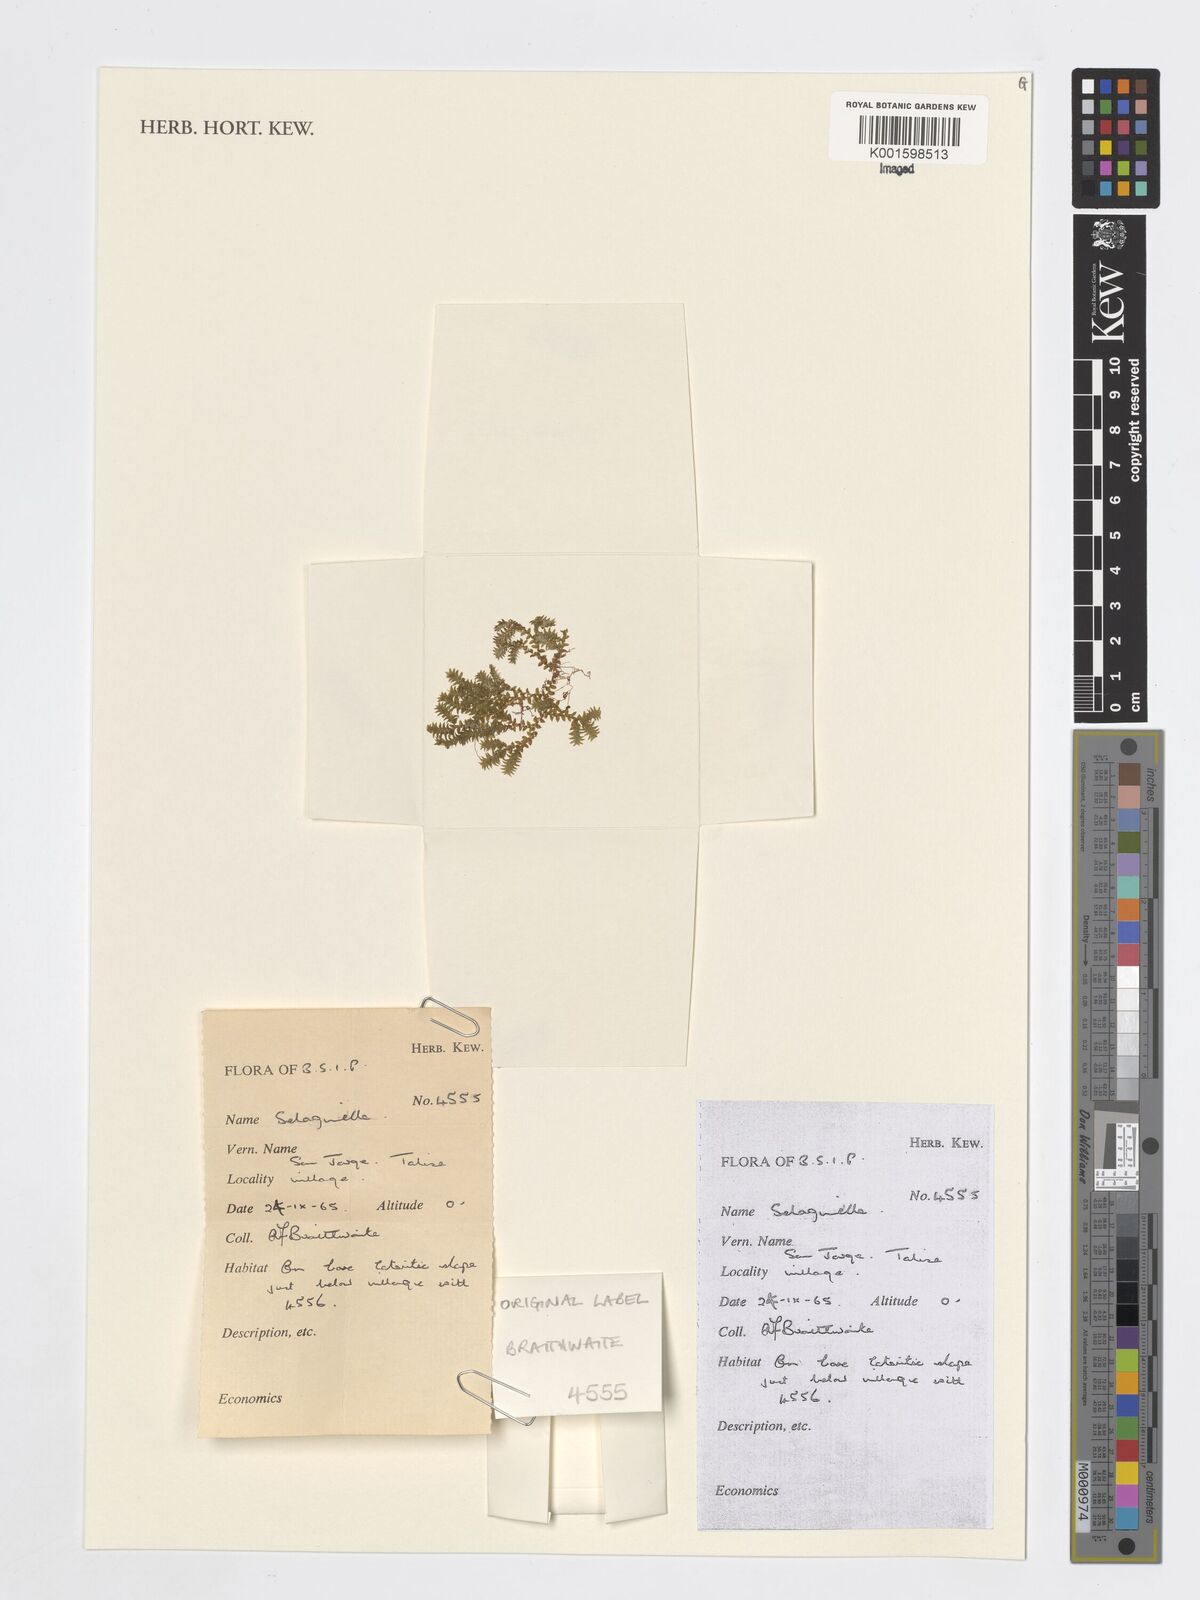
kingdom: Plantae
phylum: Tracheophyta
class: Lycopodiopsida
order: Selaginellales
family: Selaginellaceae
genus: Selaginella
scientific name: Selaginella
